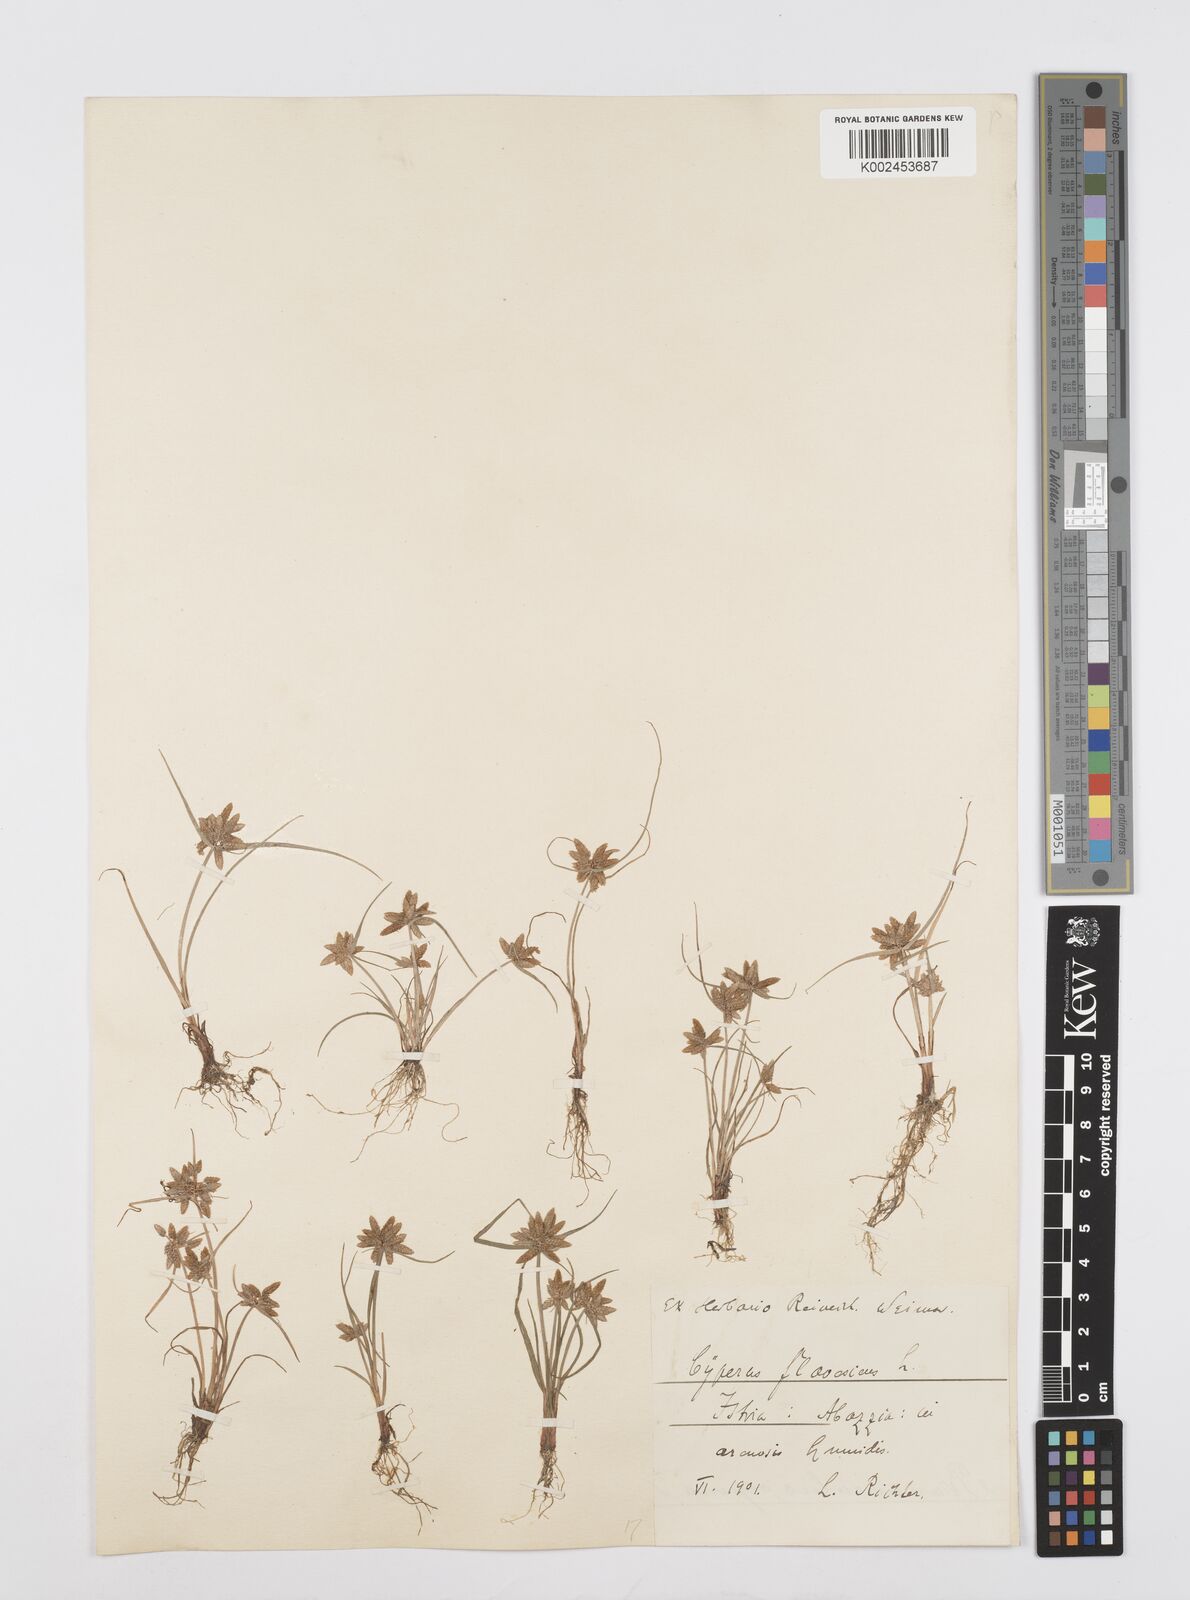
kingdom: Plantae
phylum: Tracheophyta
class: Liliopsida
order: Poales
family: Cyperaceae
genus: Cyperus
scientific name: Cyperus flavescens
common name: Yellow galingale
